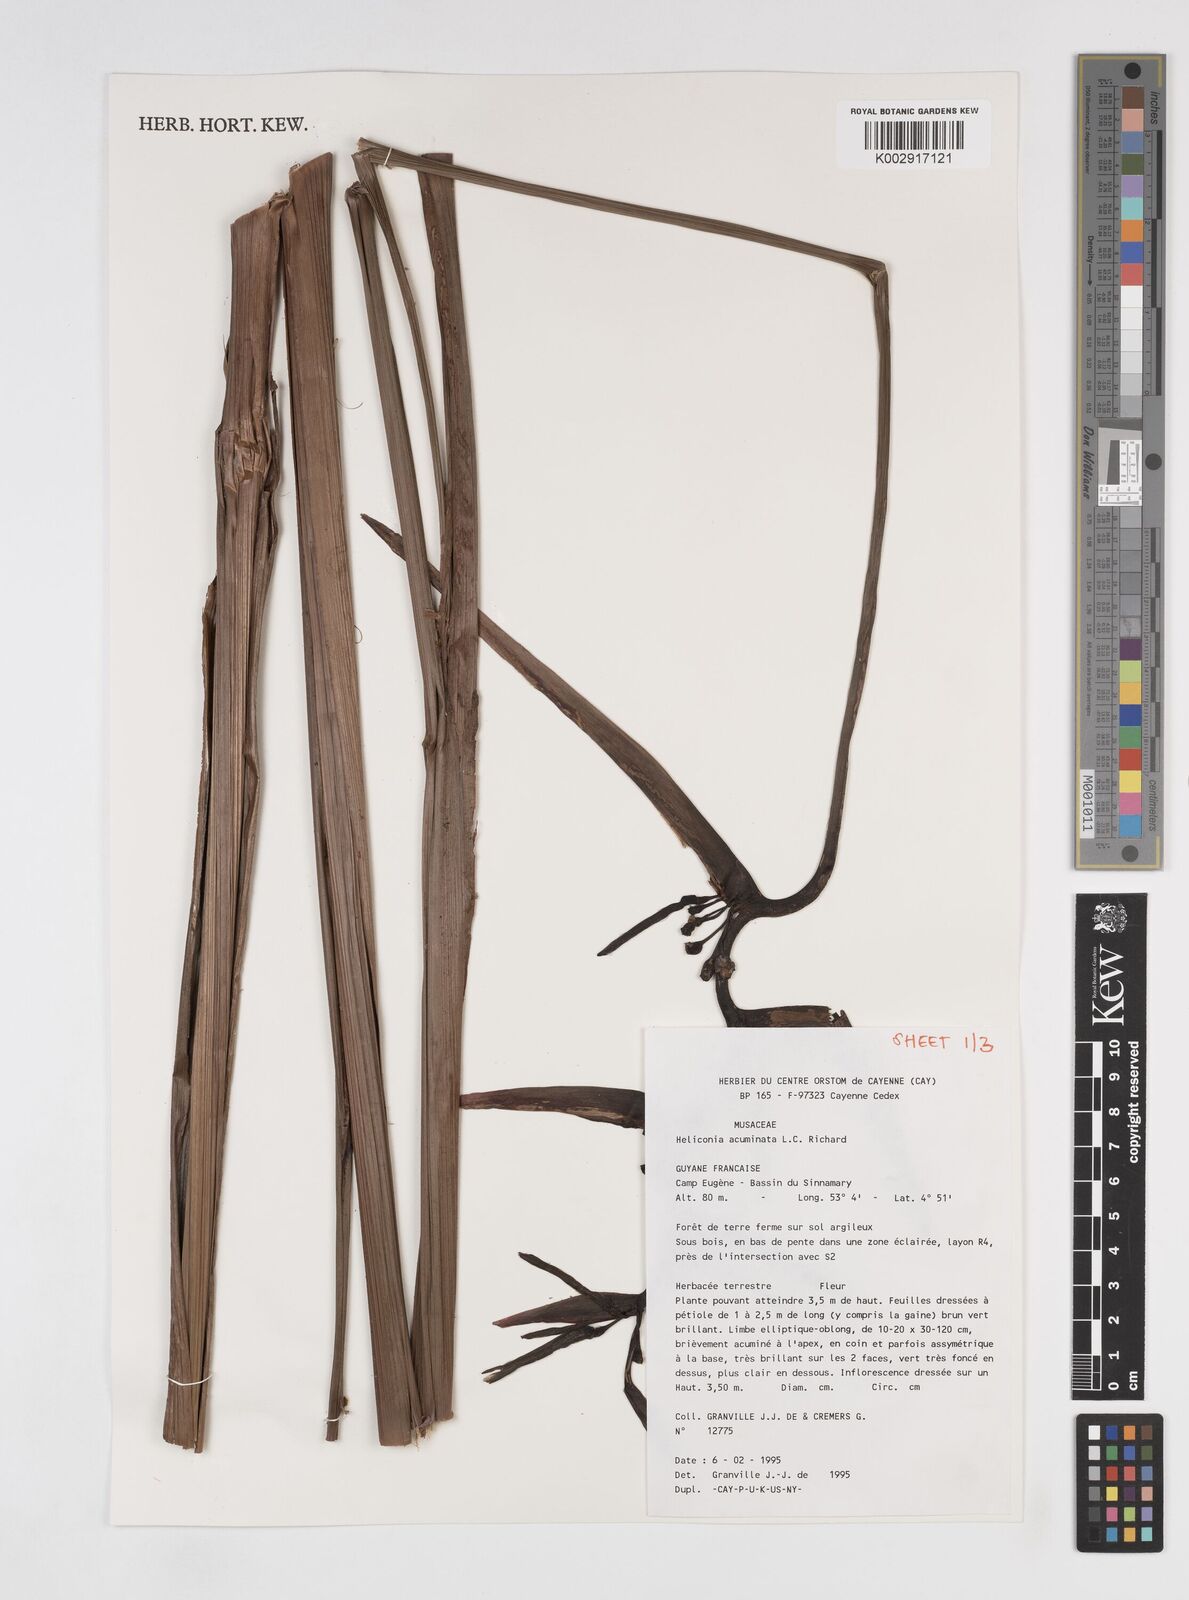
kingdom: Plantae
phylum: Tracheophyta
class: Liliopsida
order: Zingiberales
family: Heliconiaceae
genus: Heliconia
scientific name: Heliconia acuminata
